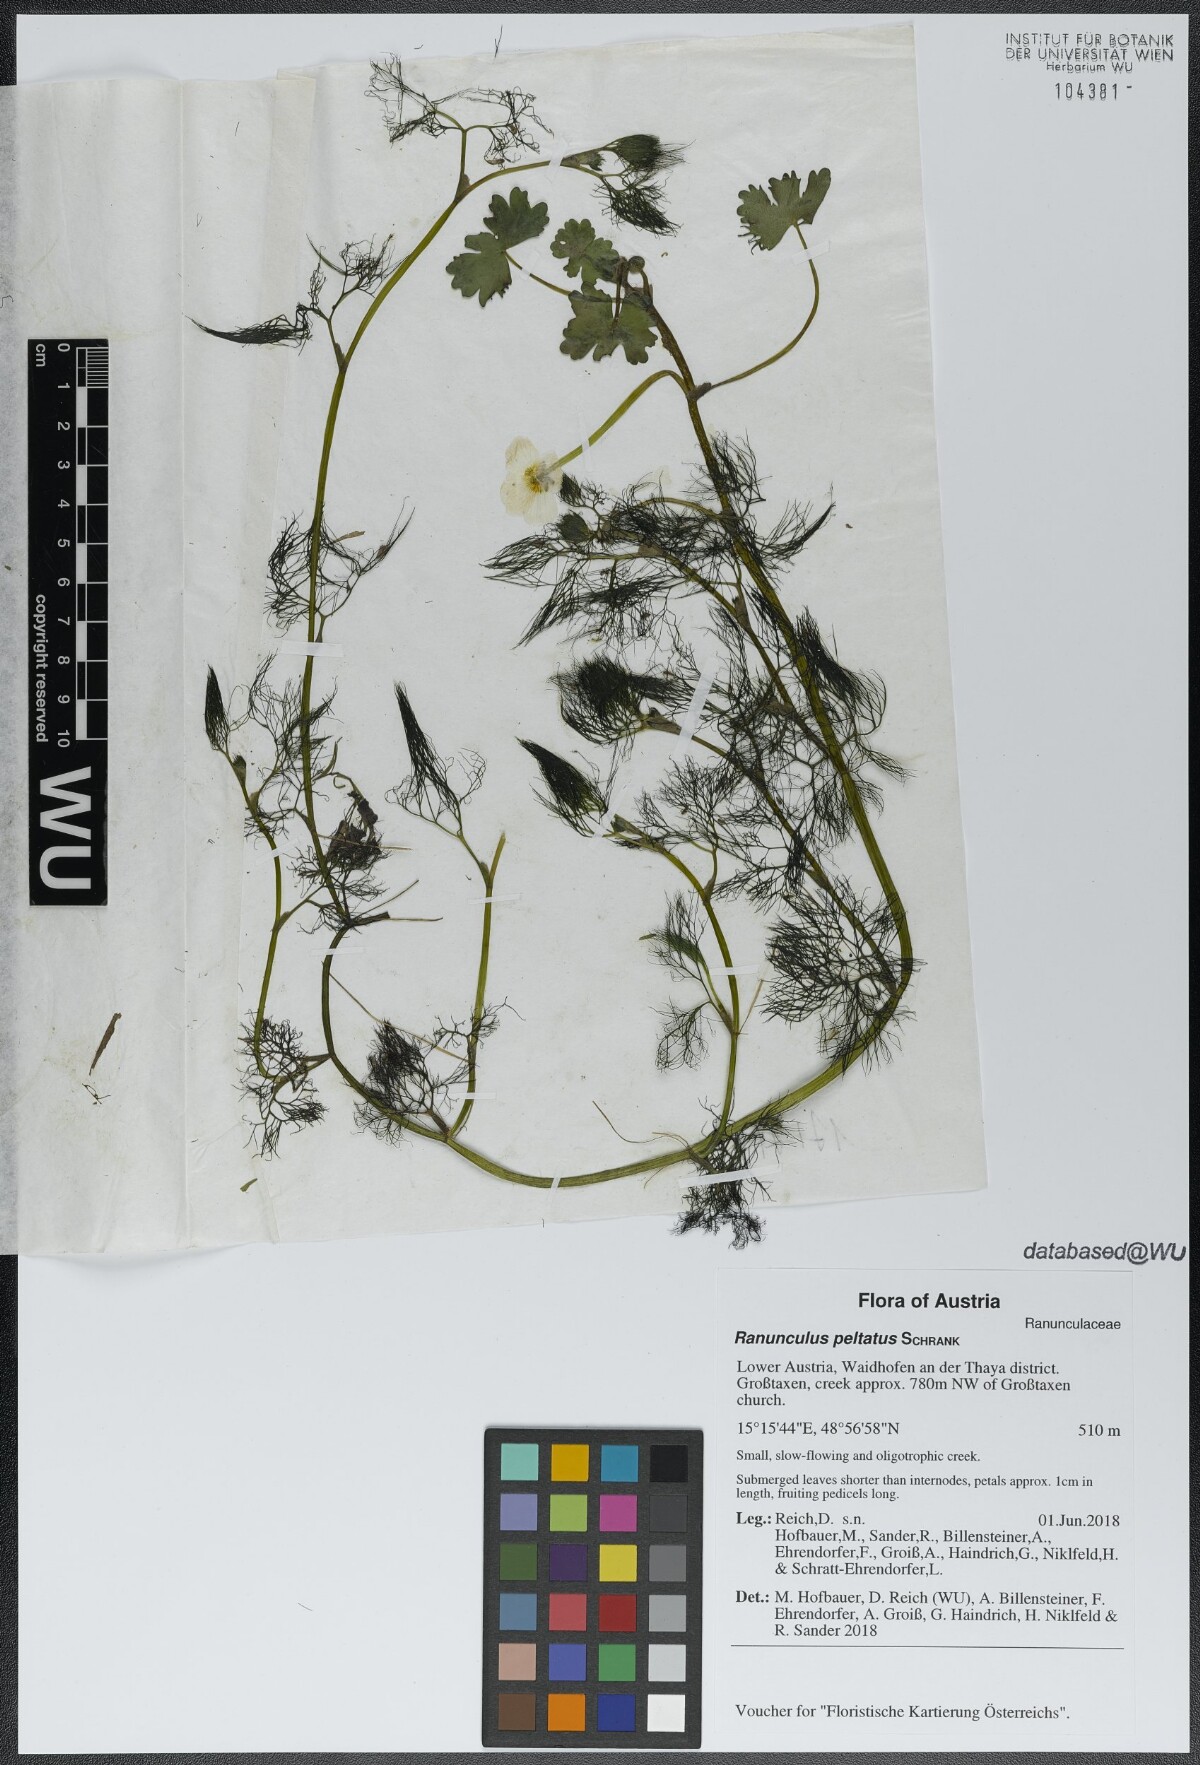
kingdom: Plantae
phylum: Tracheophyta
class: Magnoliopsida
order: Ranunculales
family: Ranunculaceae
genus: Ranunculus
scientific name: Ranunculus peltatus
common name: Pond water-crowfoot
